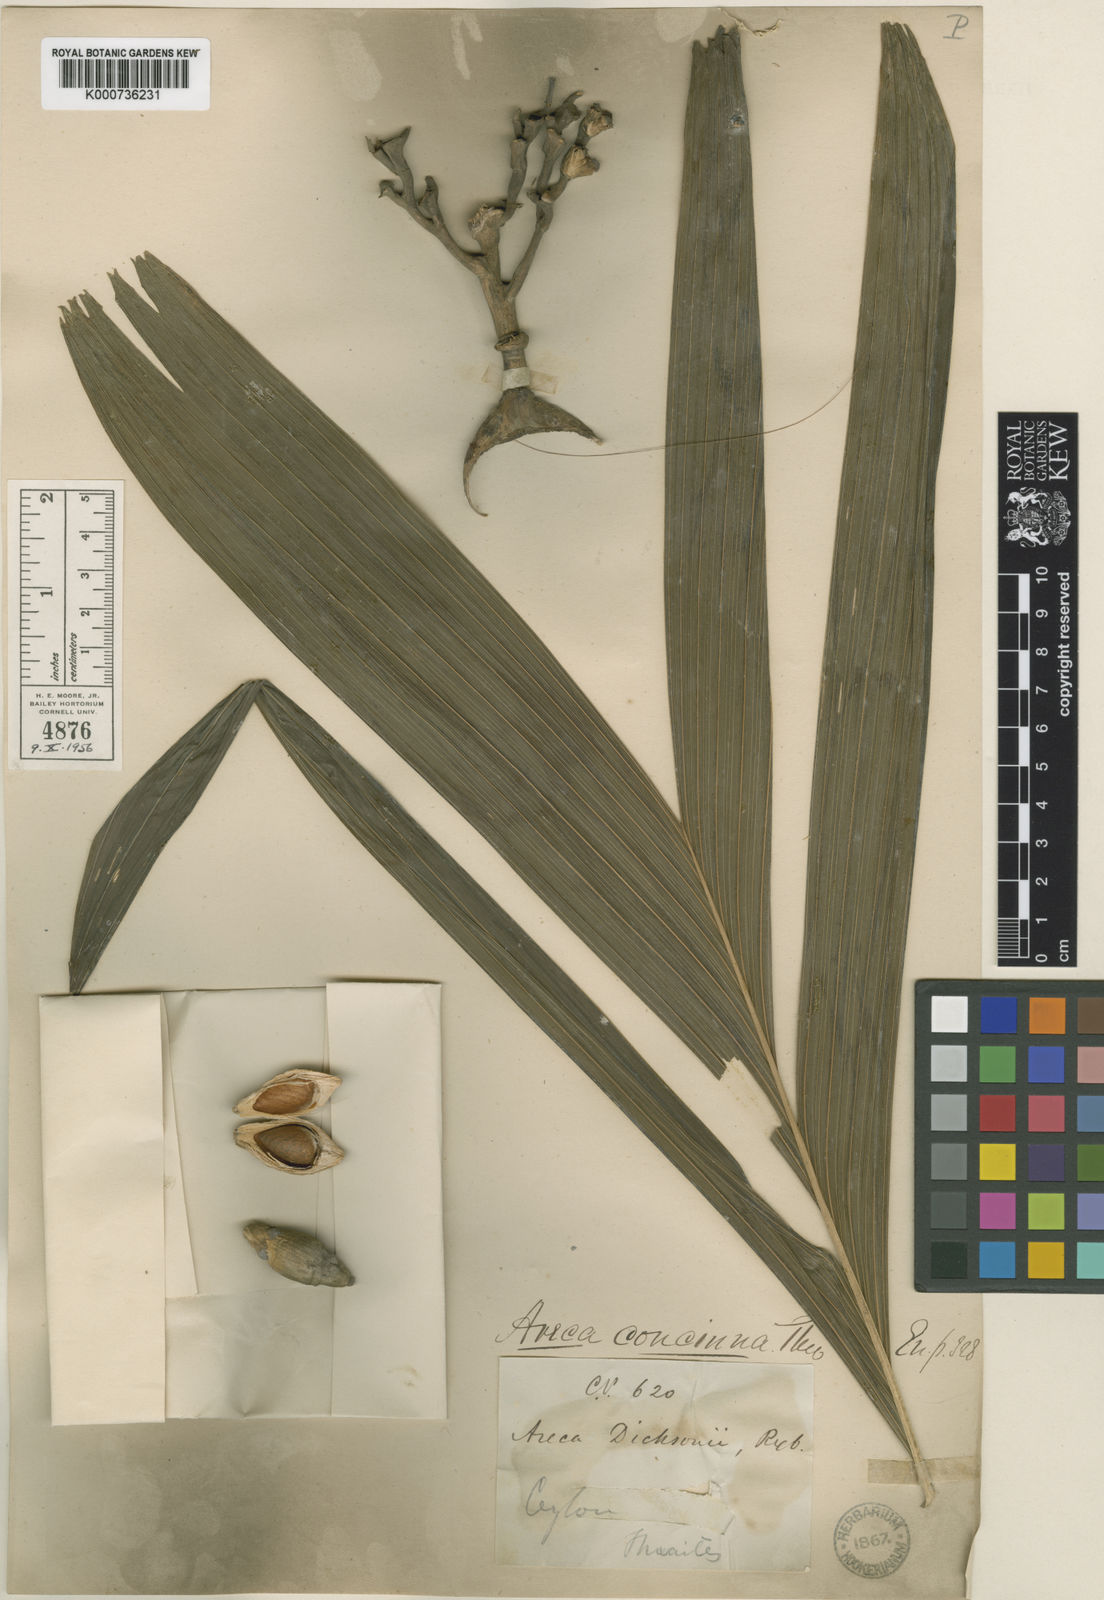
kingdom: Plantae
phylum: Tracheophyta
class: Liliopsida
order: Arecales
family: Arecaceae
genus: Areca
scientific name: Areca concinna
